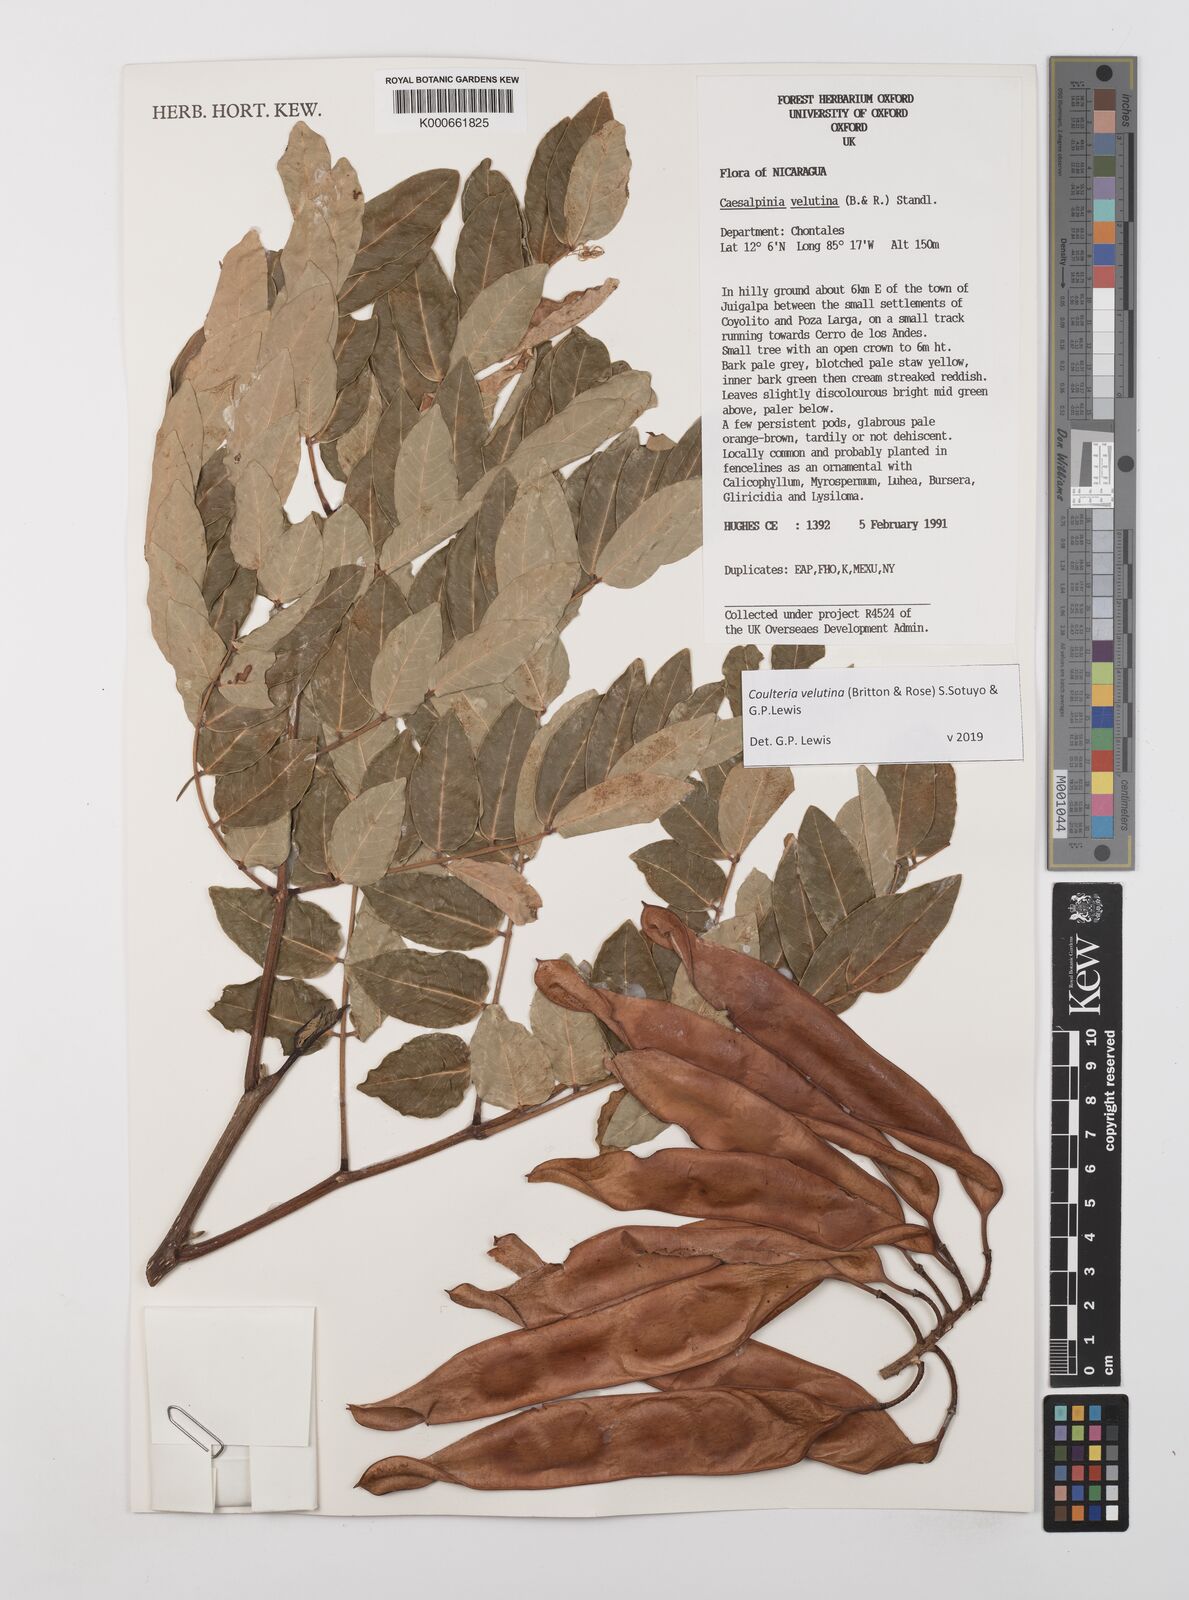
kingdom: Plantae
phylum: Tracheophyta
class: Magnoliopsida
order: Fabales
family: Fabaceae
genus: Coulteria
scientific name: Coulteria velutina
